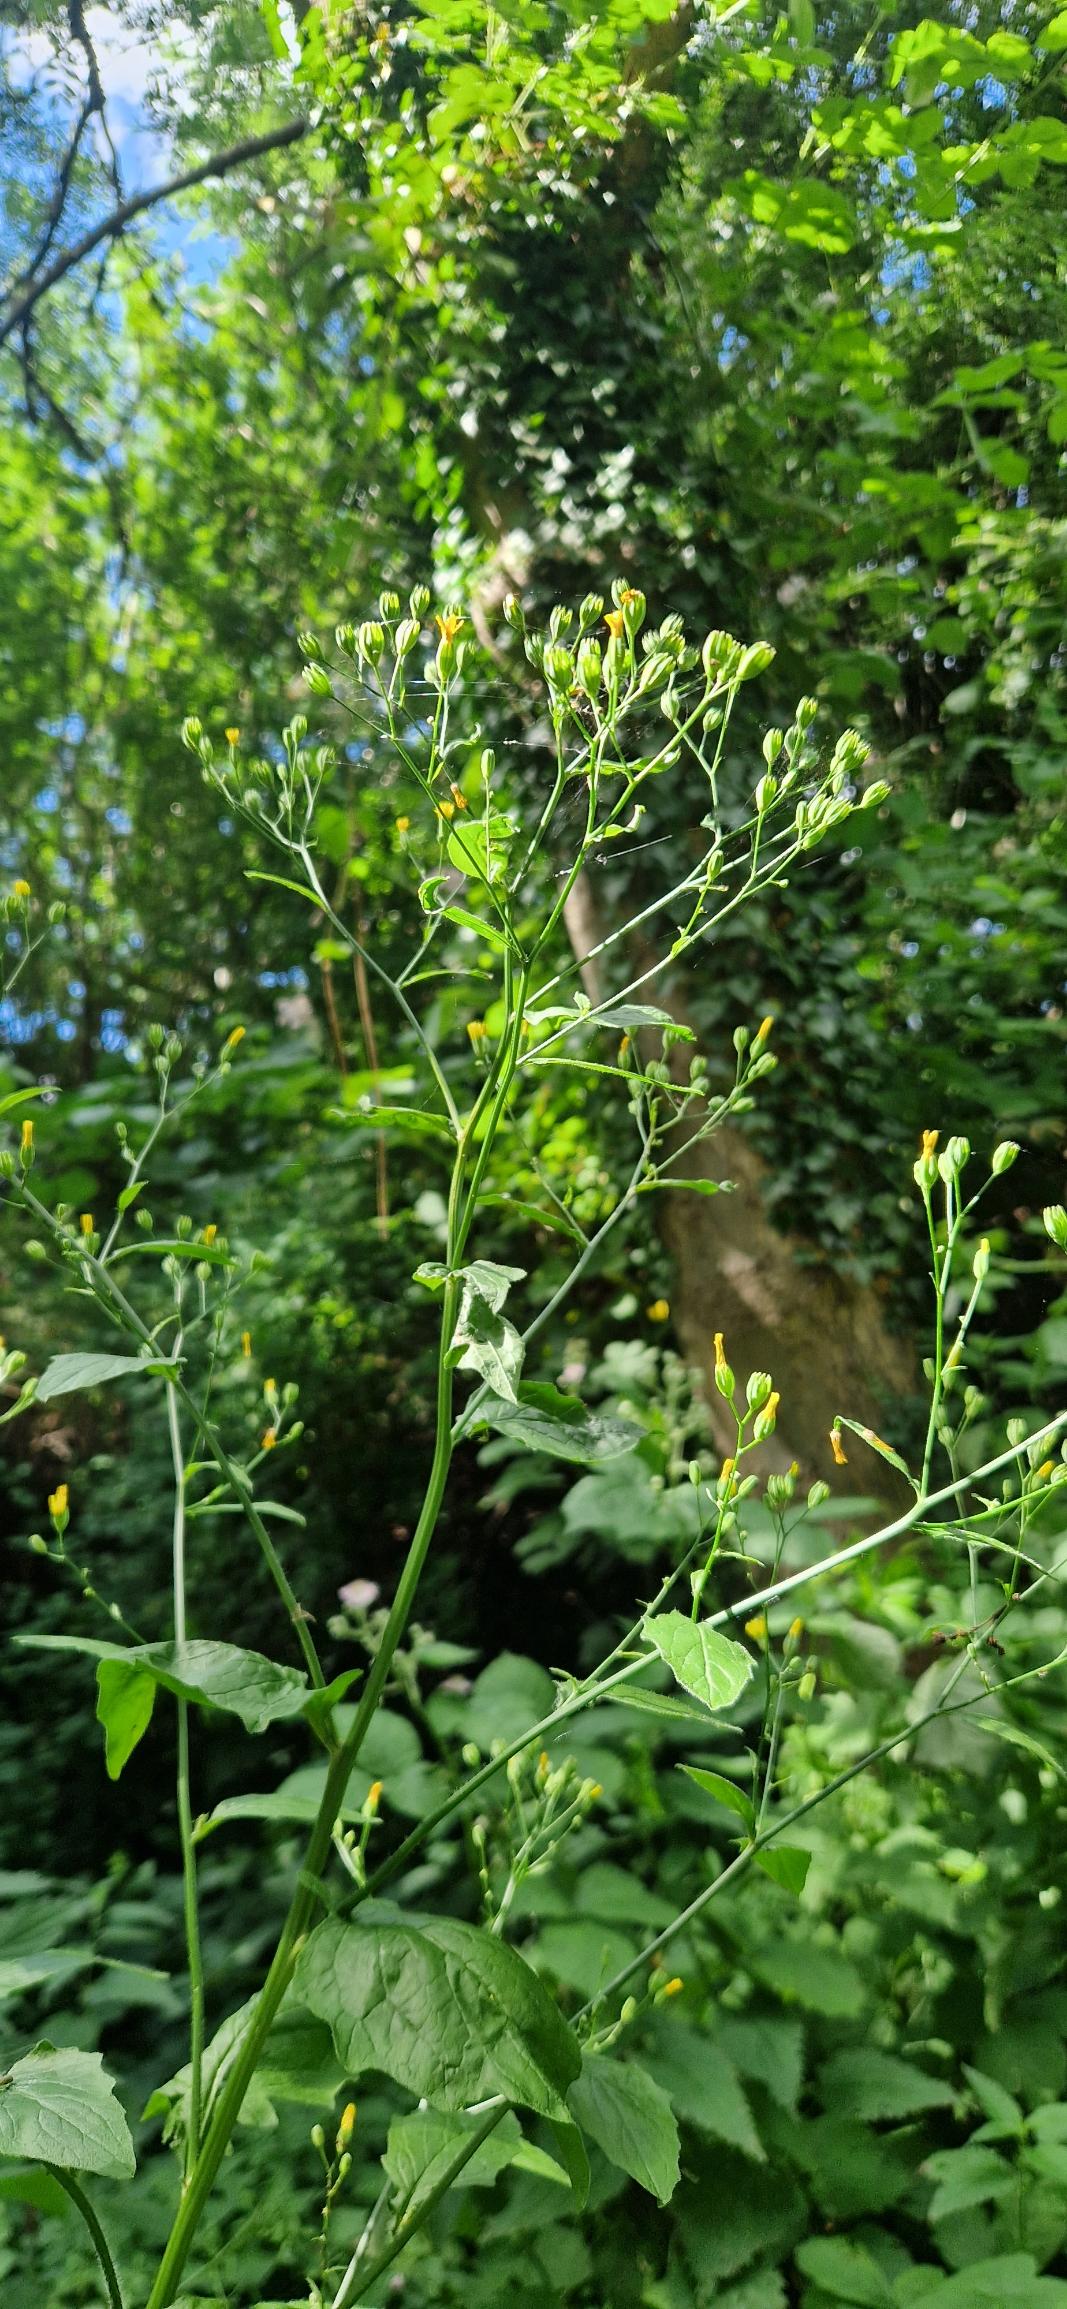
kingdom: Plantae
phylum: Tracheophyta
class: Magnoliopsida
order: Asterales
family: Asteraceae
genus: Lapsana
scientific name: Lapsana communis
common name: Haremad
